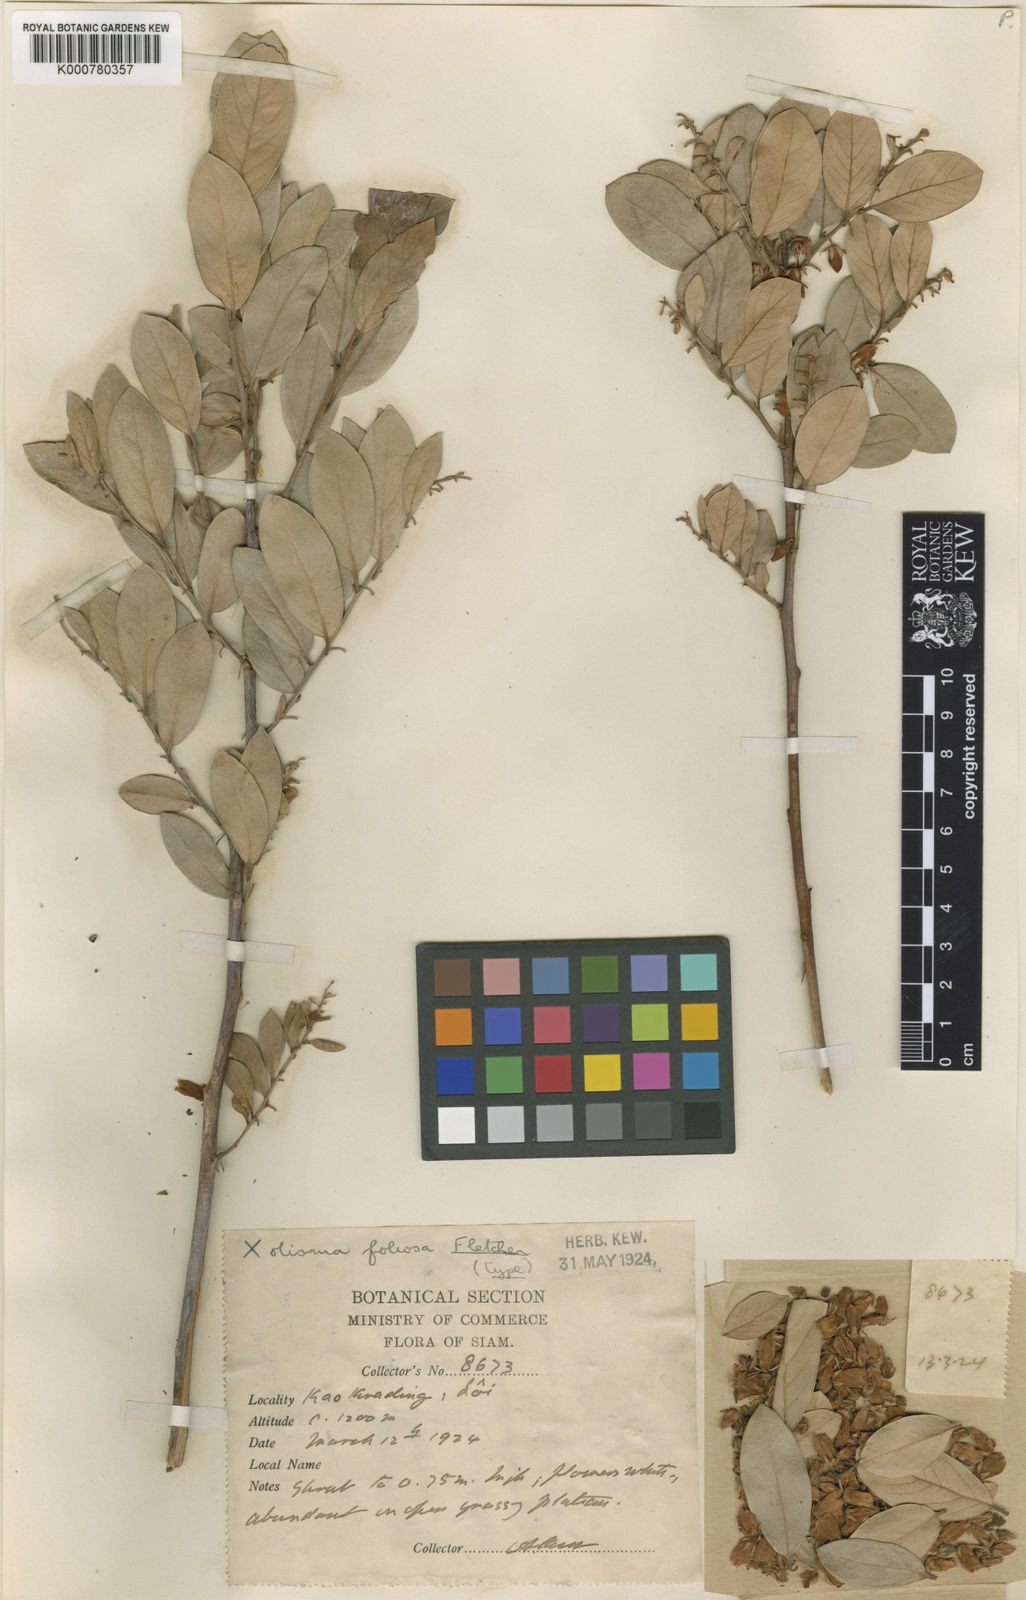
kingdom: Plantae
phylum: Tracheophyta
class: Magnoliopsida
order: Ericales
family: Ericaceae
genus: Lyonia
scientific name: Lyonia ovalifolia
